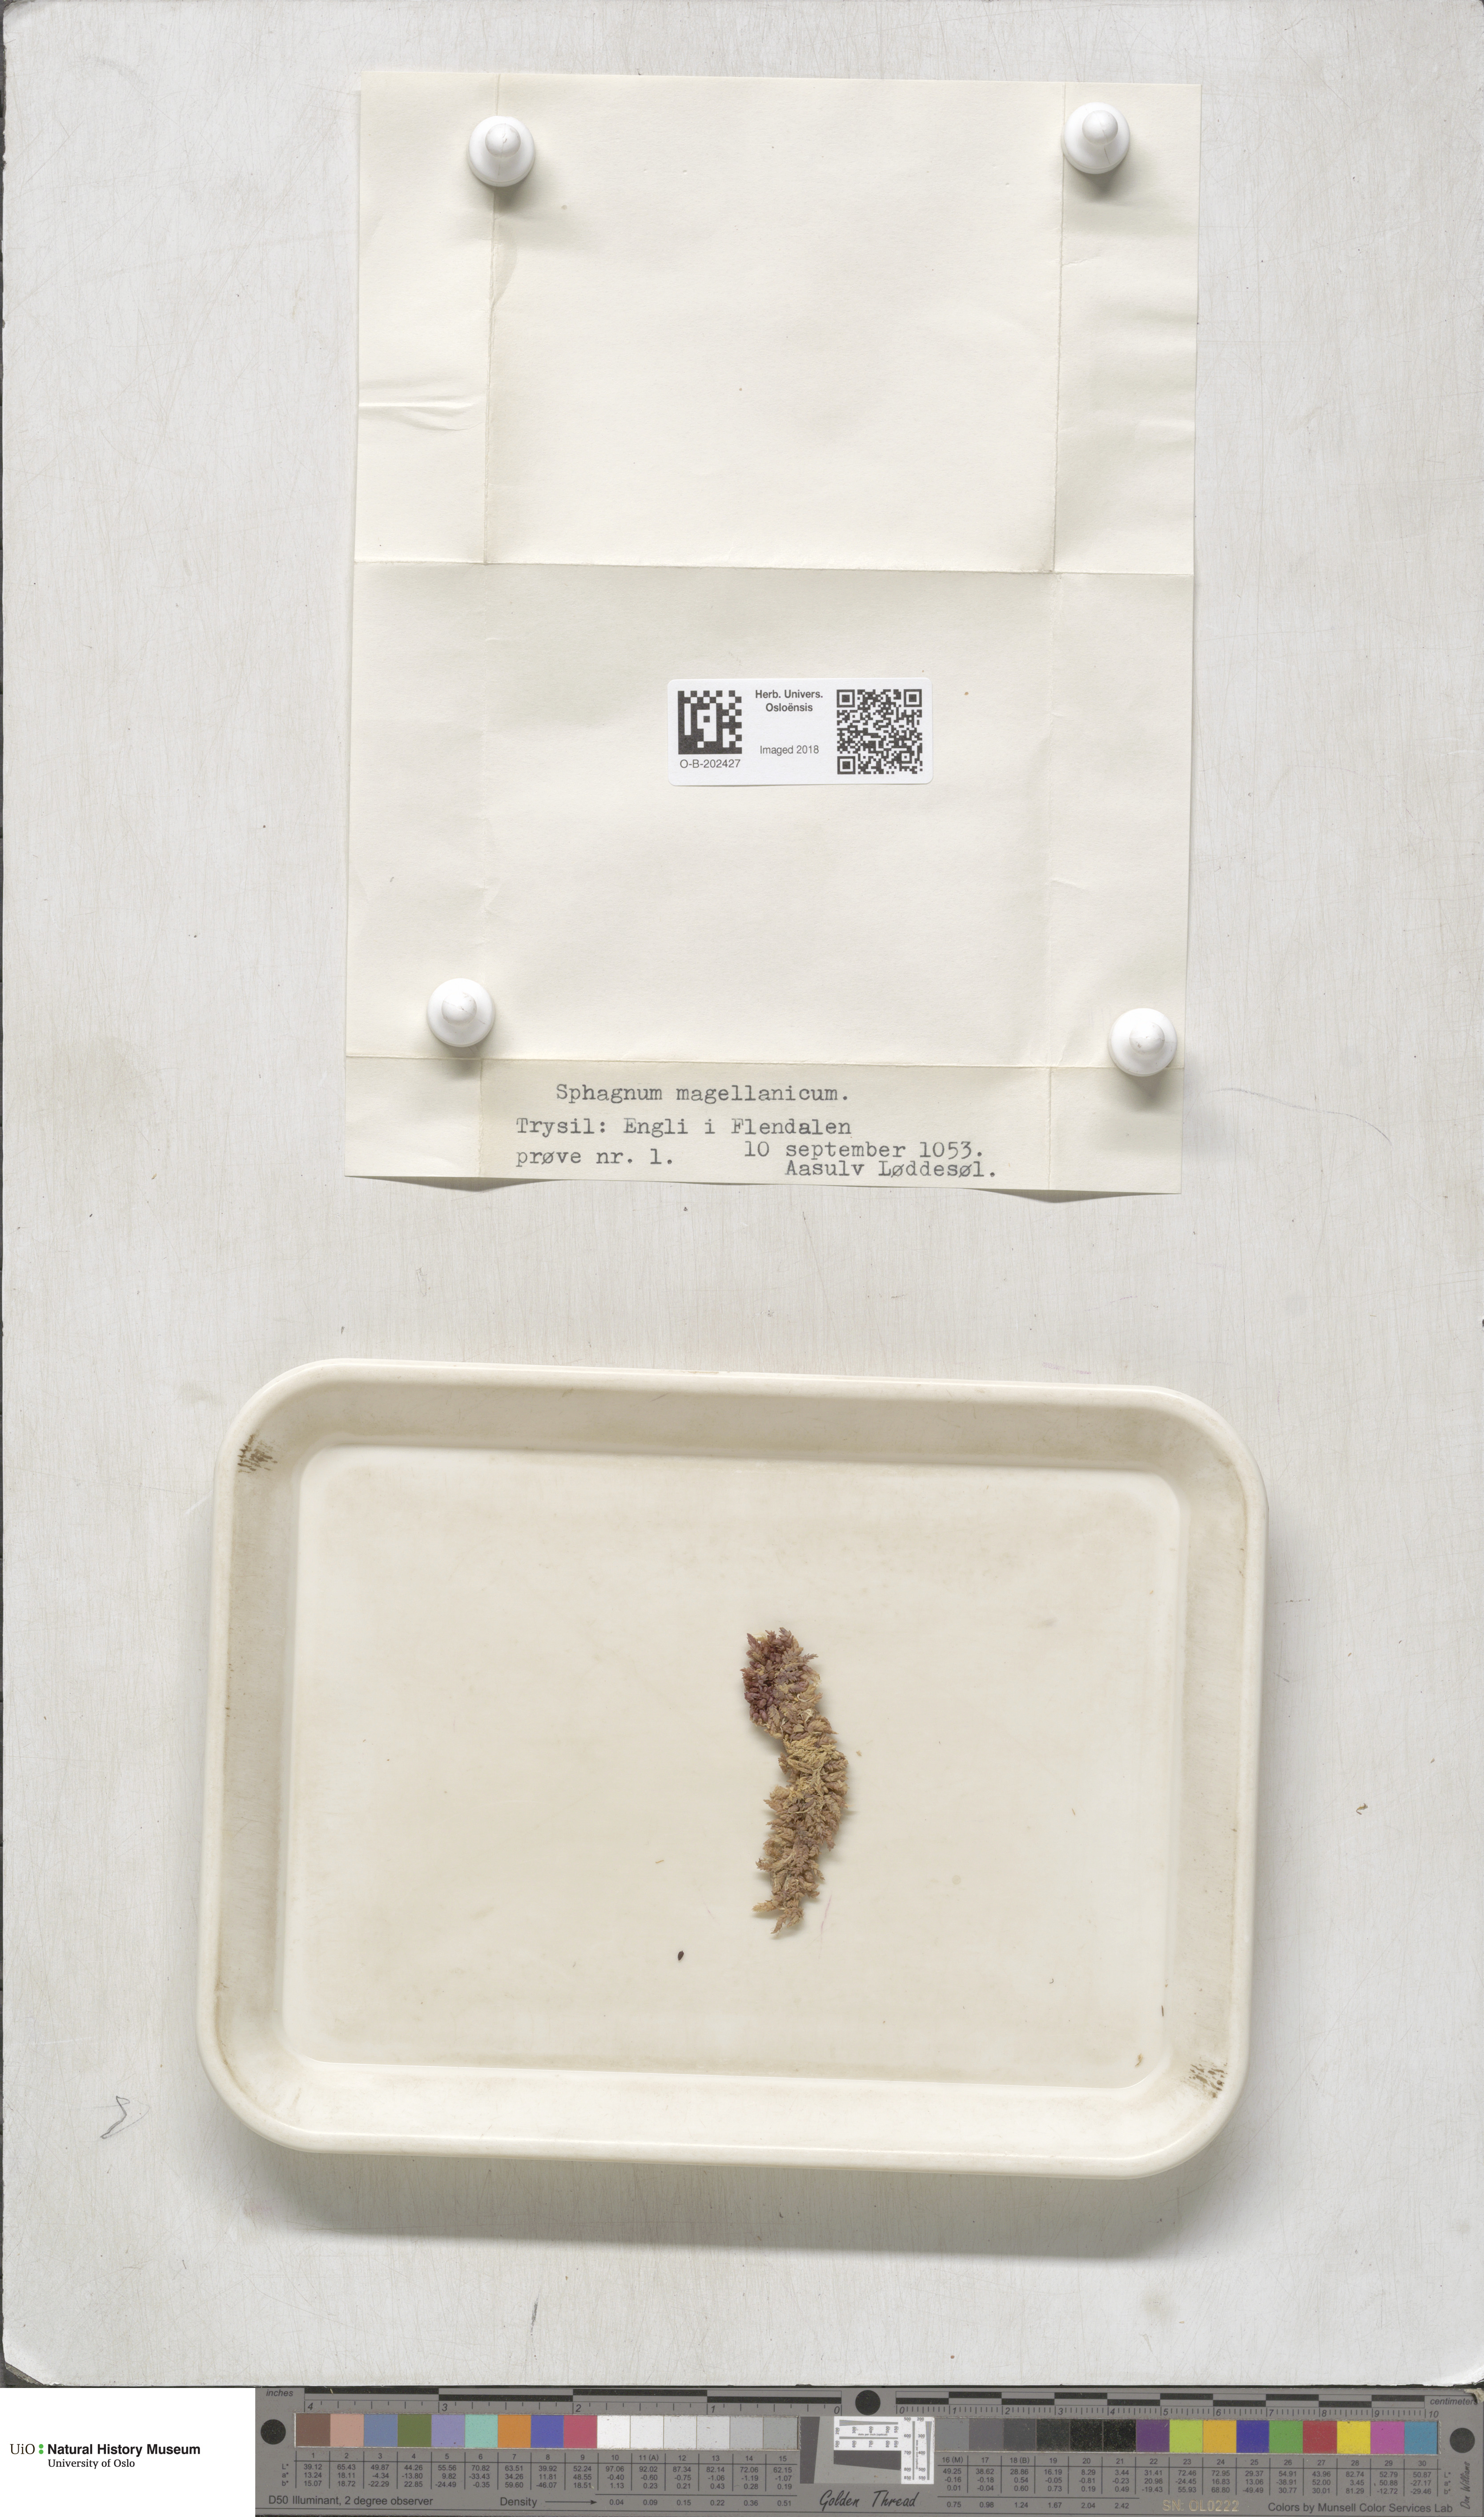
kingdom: Plantae
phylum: Bryophyta
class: Sphagnopsida
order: Sphagnales
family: Sphagnaceae
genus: Sphagnum
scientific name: Sphagnum magellanicum
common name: Magellan's peat moss
